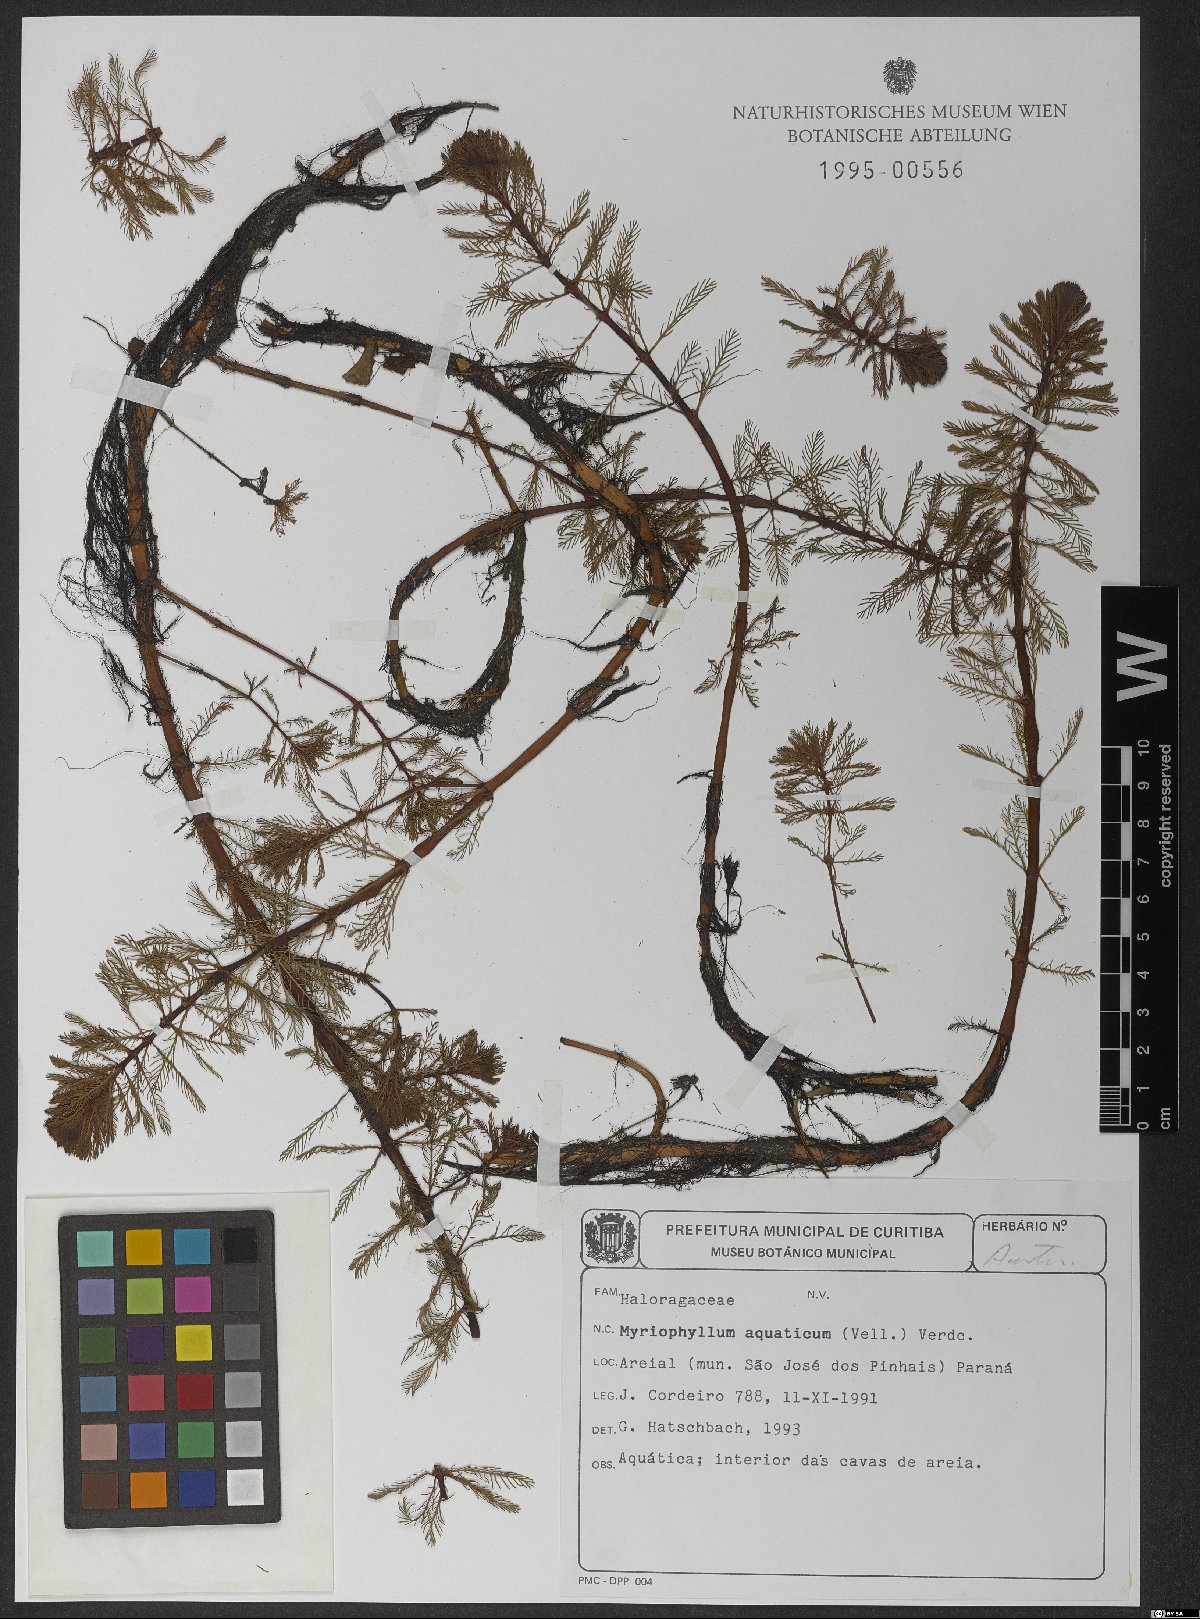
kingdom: Plantae
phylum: Tracheophyta
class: Magnoliopsida
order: Saxifragales
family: Haloragaceae
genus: Myriophyllum
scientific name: Myriophyllum aquaticum
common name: Parrot's feather
